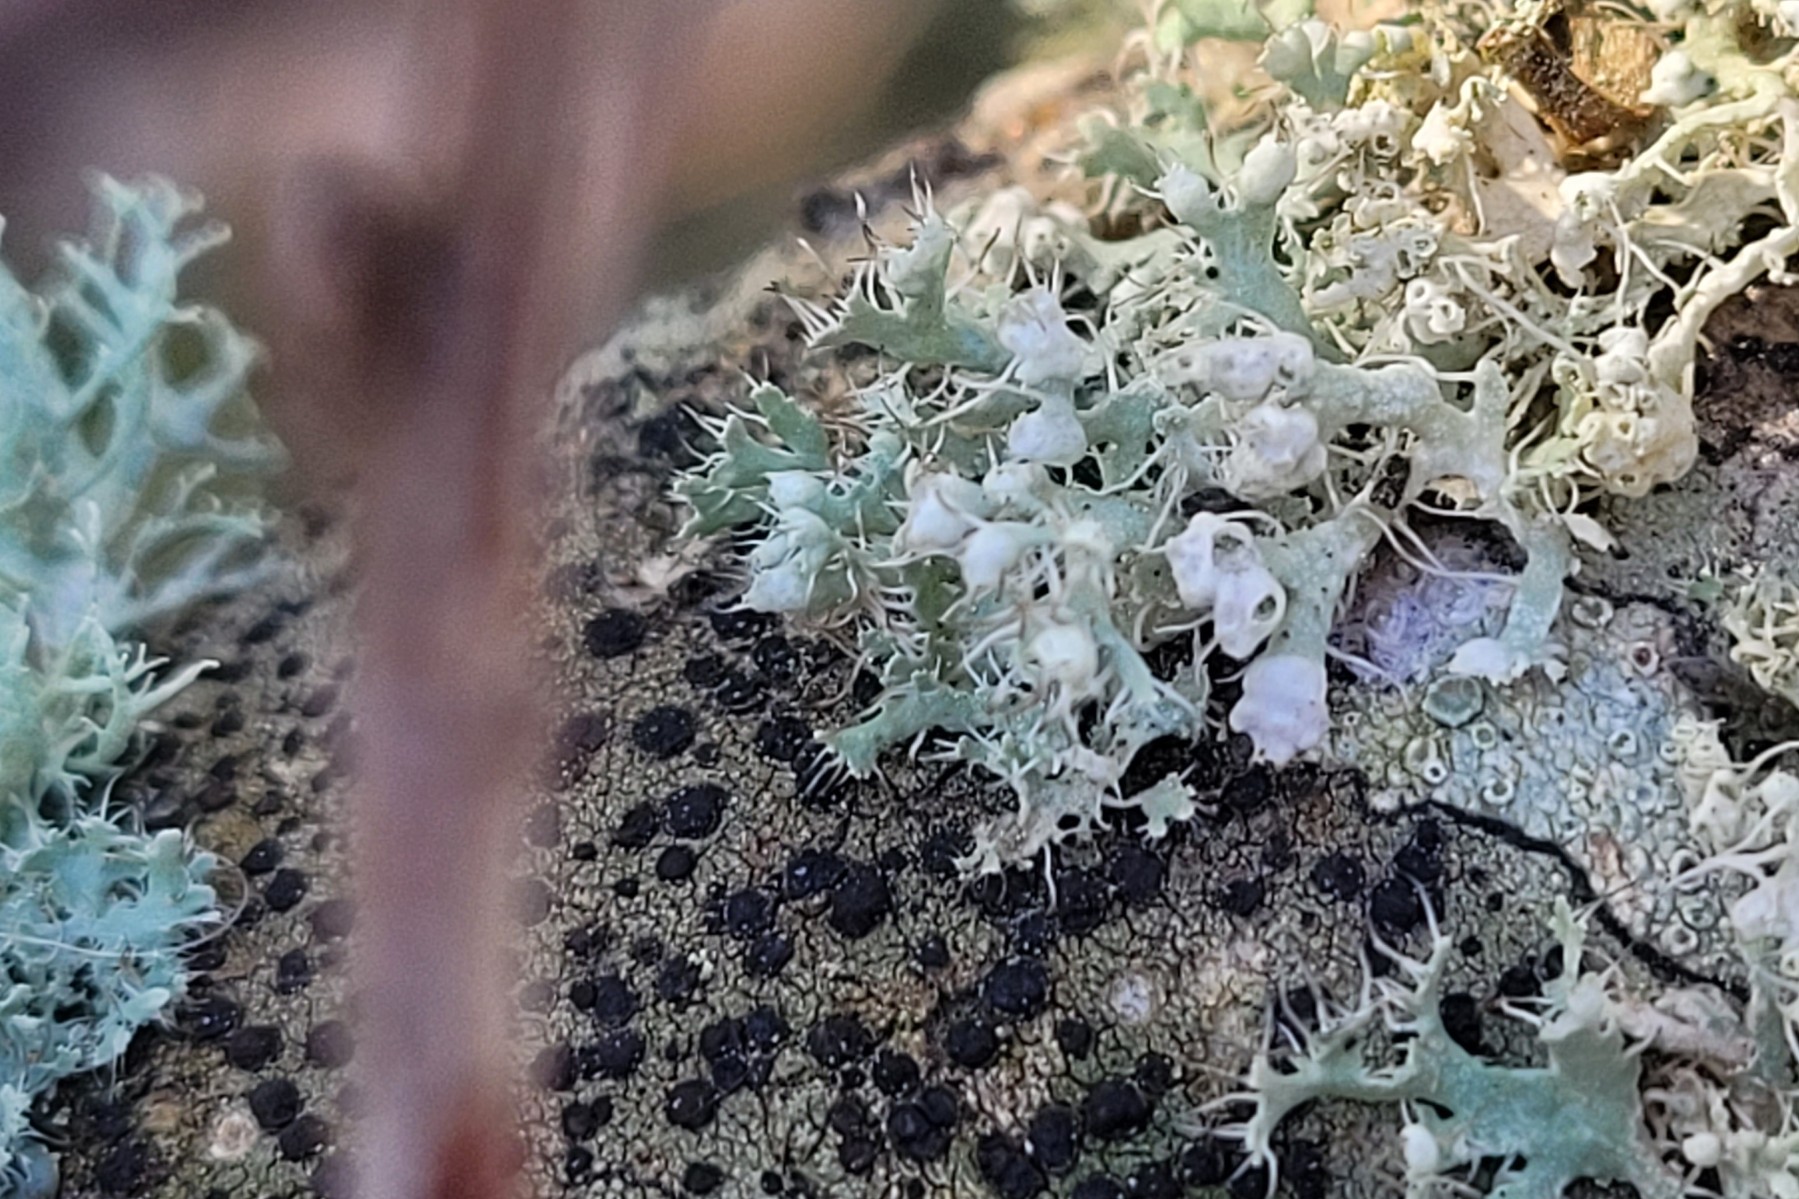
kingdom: Fungi
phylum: Ascomycota
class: Lecanoromycetes
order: Caliciales
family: Physciaceae
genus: Physcia
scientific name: Physcia adscendens
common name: hætte-rosetlav
